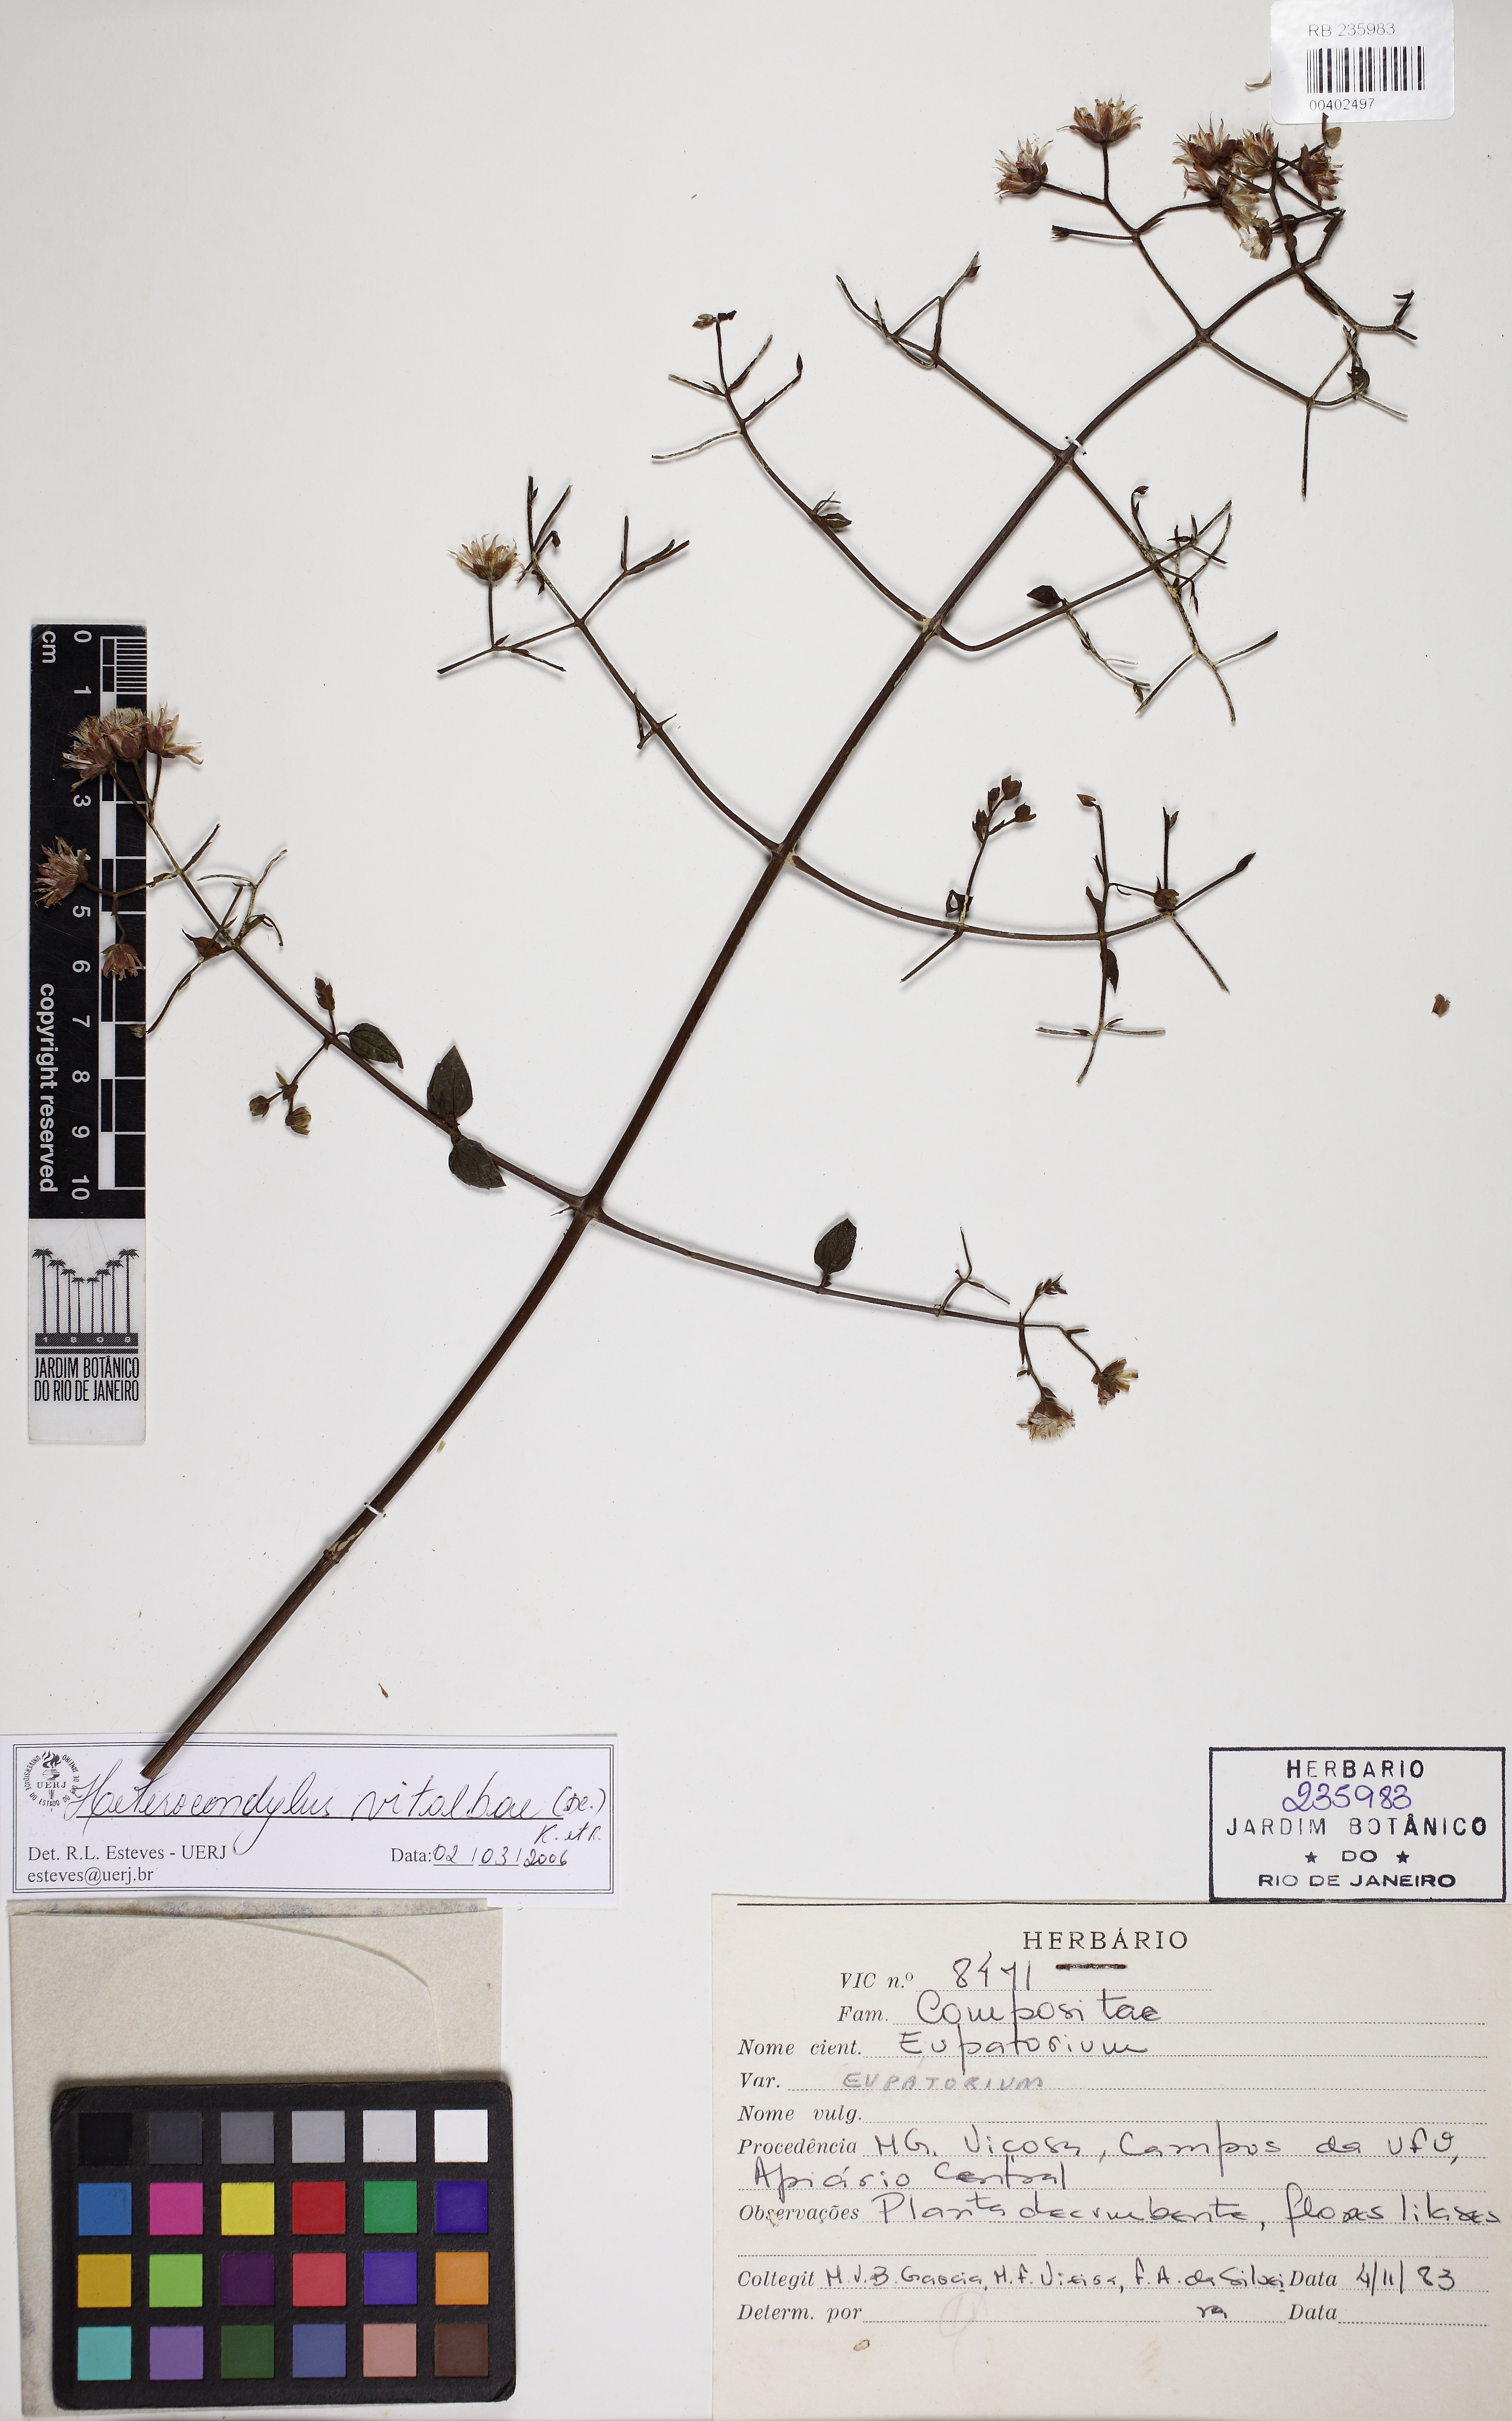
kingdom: Plantae
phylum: Tracheophyta
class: Magnoliopsida
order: Asterales
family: Asteraceae
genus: Heterocondylus
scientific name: Heterocondylus vitalbae
